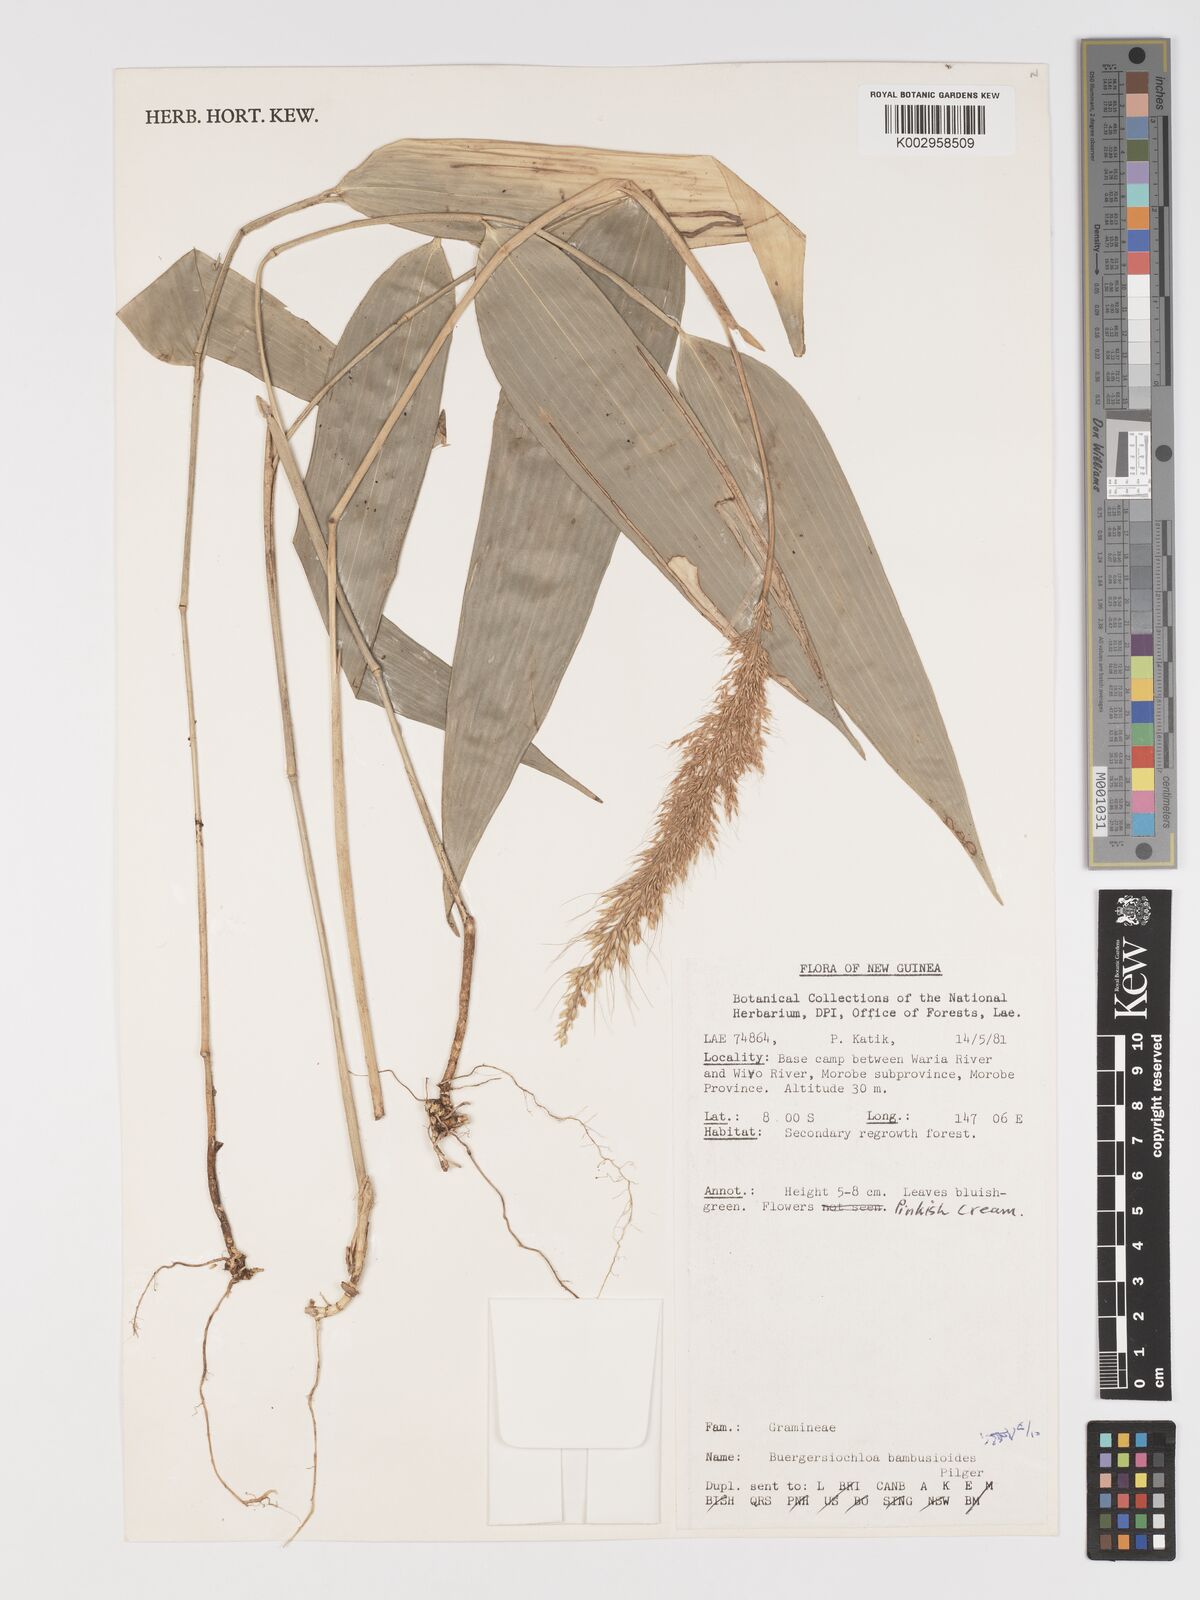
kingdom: Plantae
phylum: Tracheophyta
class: Liliopsida
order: Poales
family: Poaceae
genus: Buergersiochloa
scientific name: Buergersiochloa bambusoides
